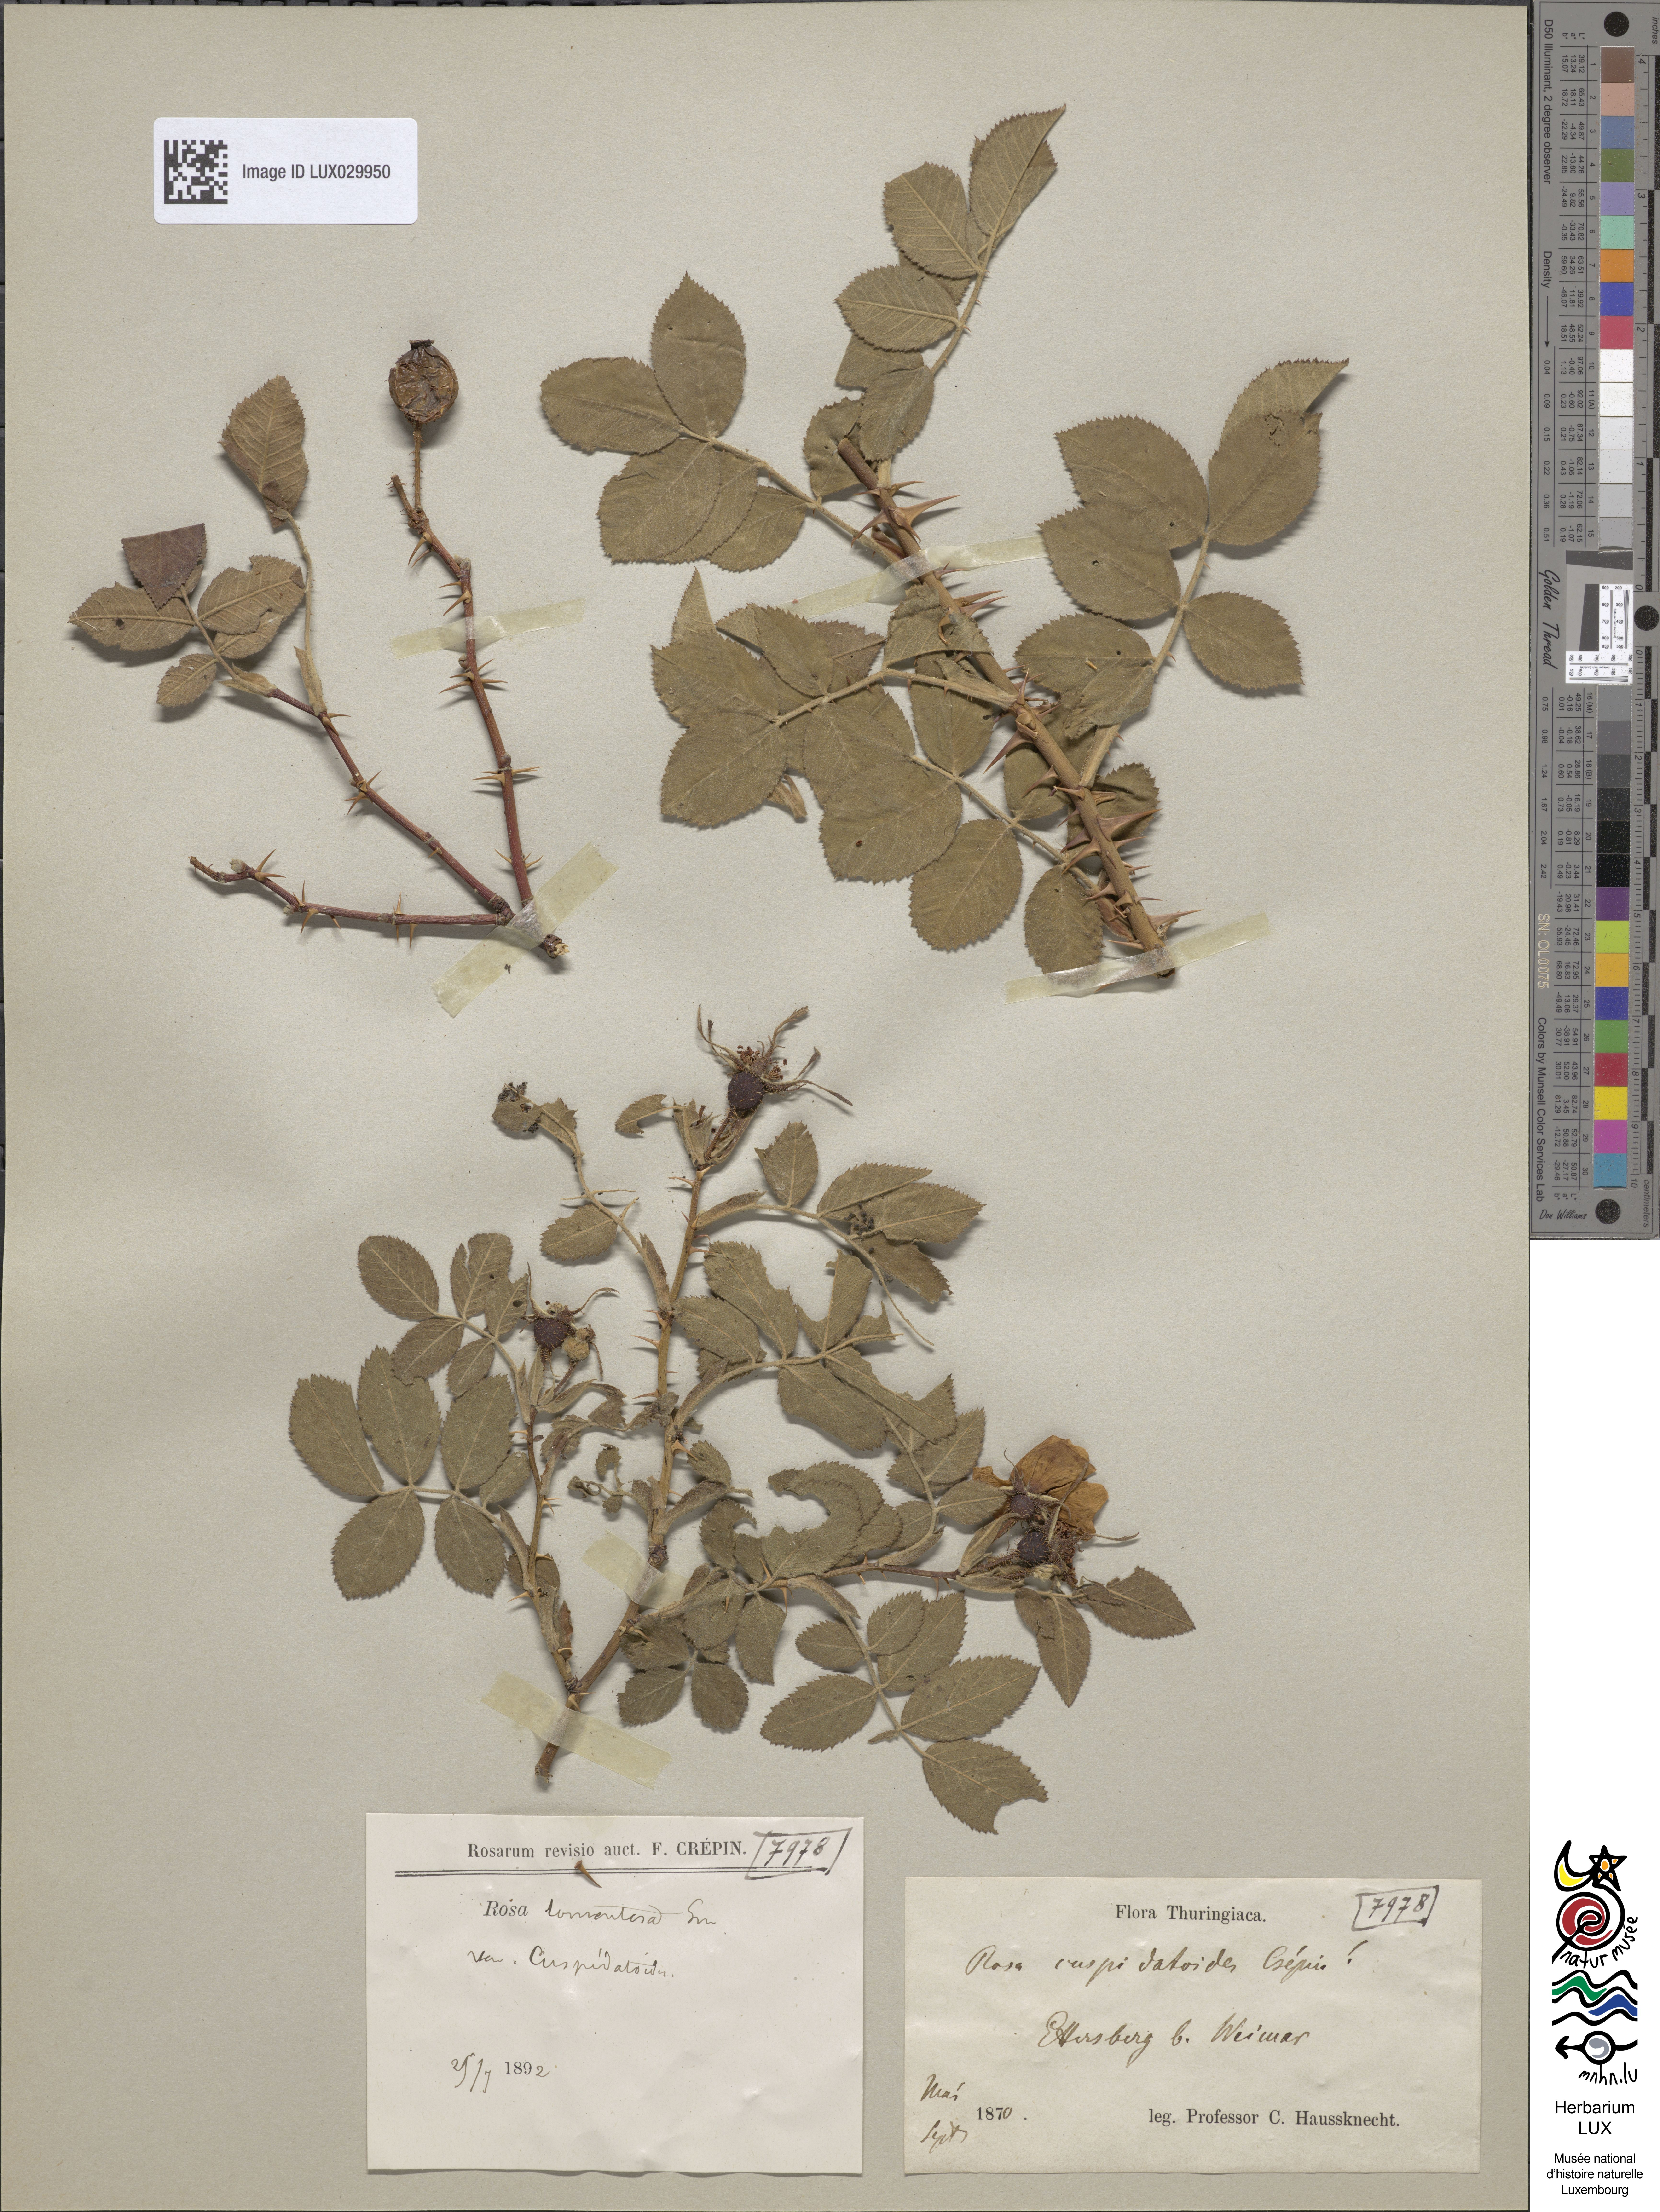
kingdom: Plantae
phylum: Tracheophyta
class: Magnoliopsida
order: Rosales
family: Rosaceae
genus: Rosa
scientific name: Rosa sherardii
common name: Sherard's downy rose
